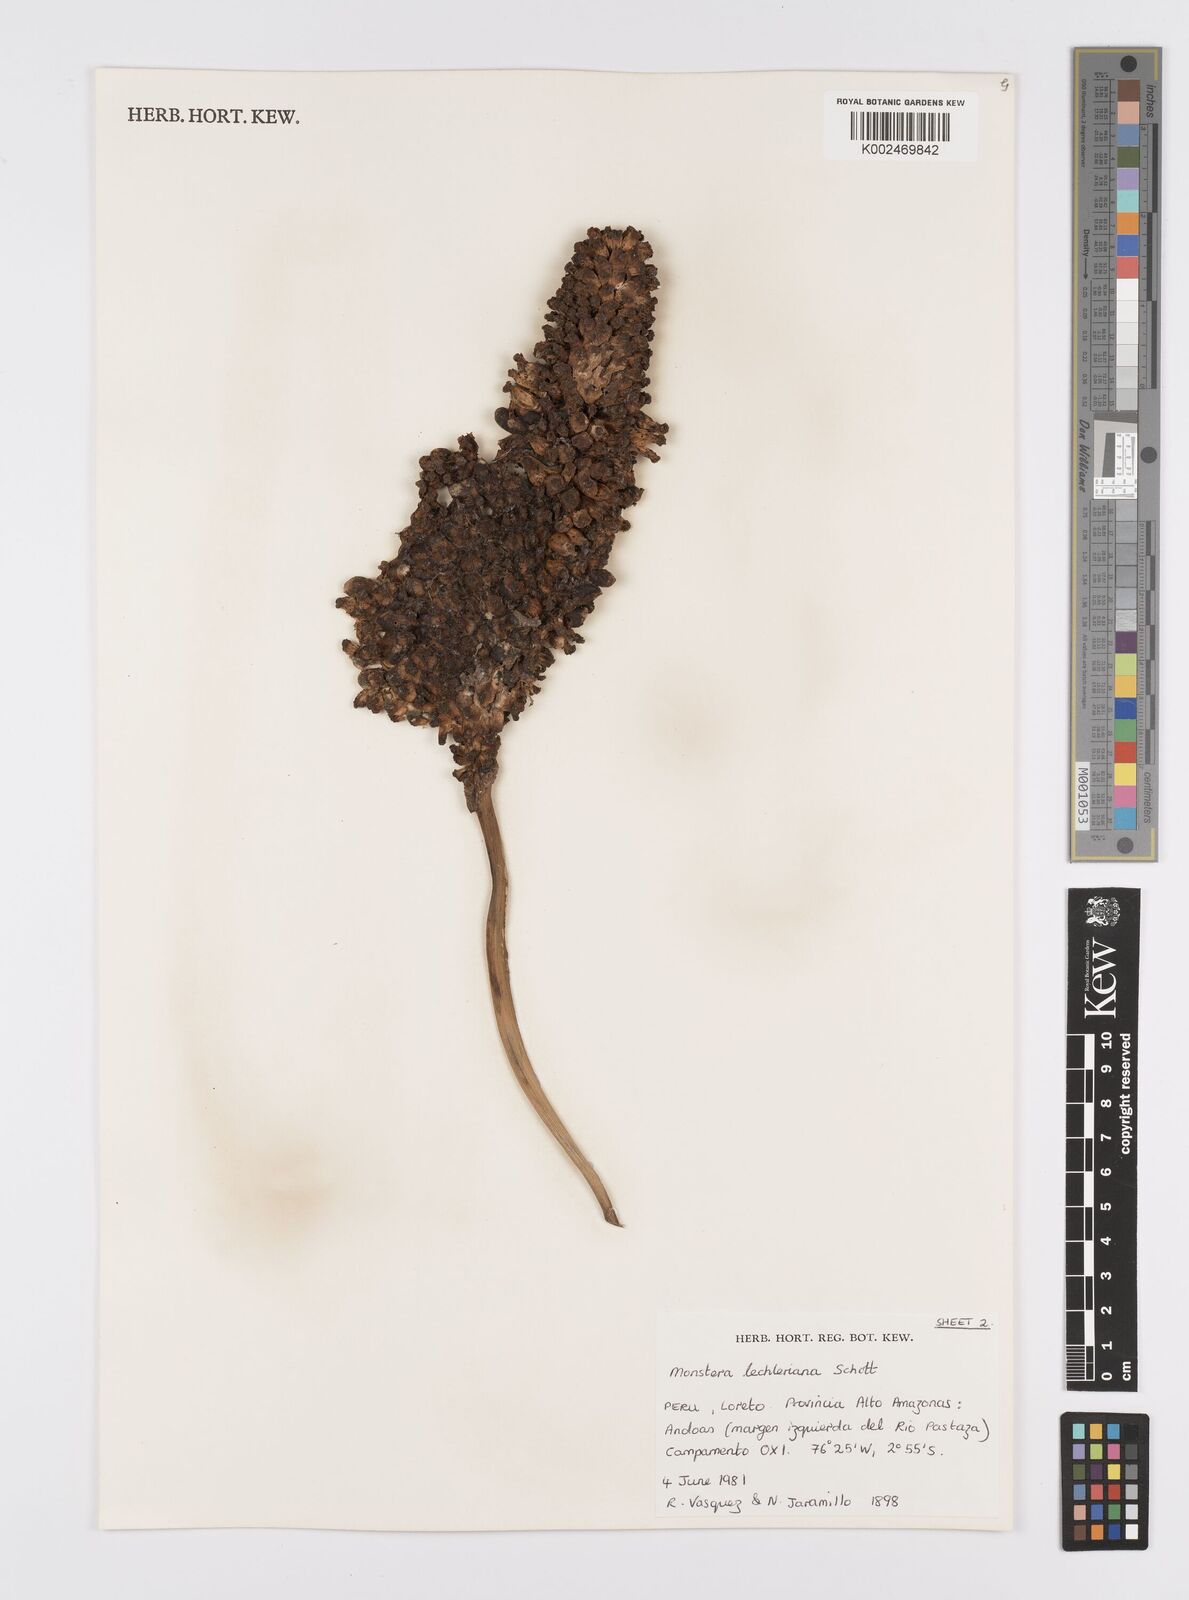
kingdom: Plantae
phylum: Tracheophyta
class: Liliopsida
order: Alismatales
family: Araceae
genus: Monstera
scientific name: Monstera lechleriana
